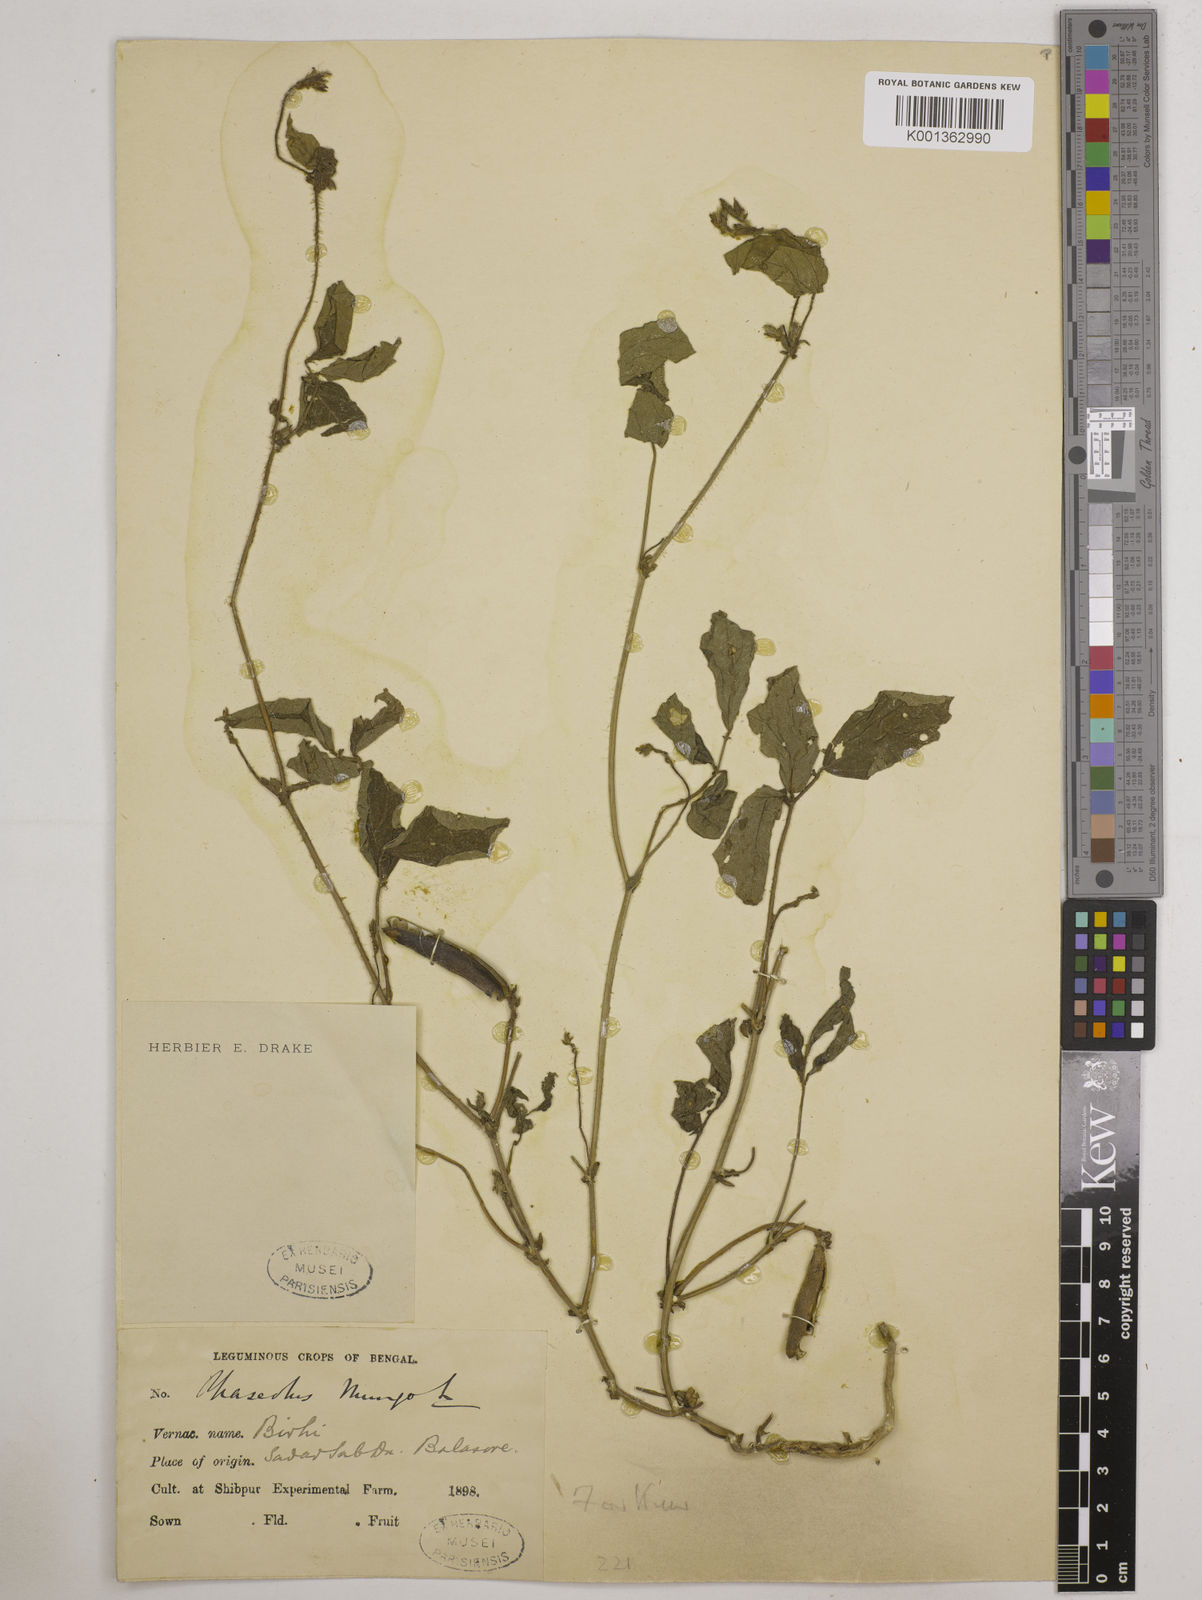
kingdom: Plantae
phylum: Tracheophyta
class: Magnoliopsida
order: Fabales
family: Fabaceae
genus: Vigna
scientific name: Vigna mungo
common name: Black gram
